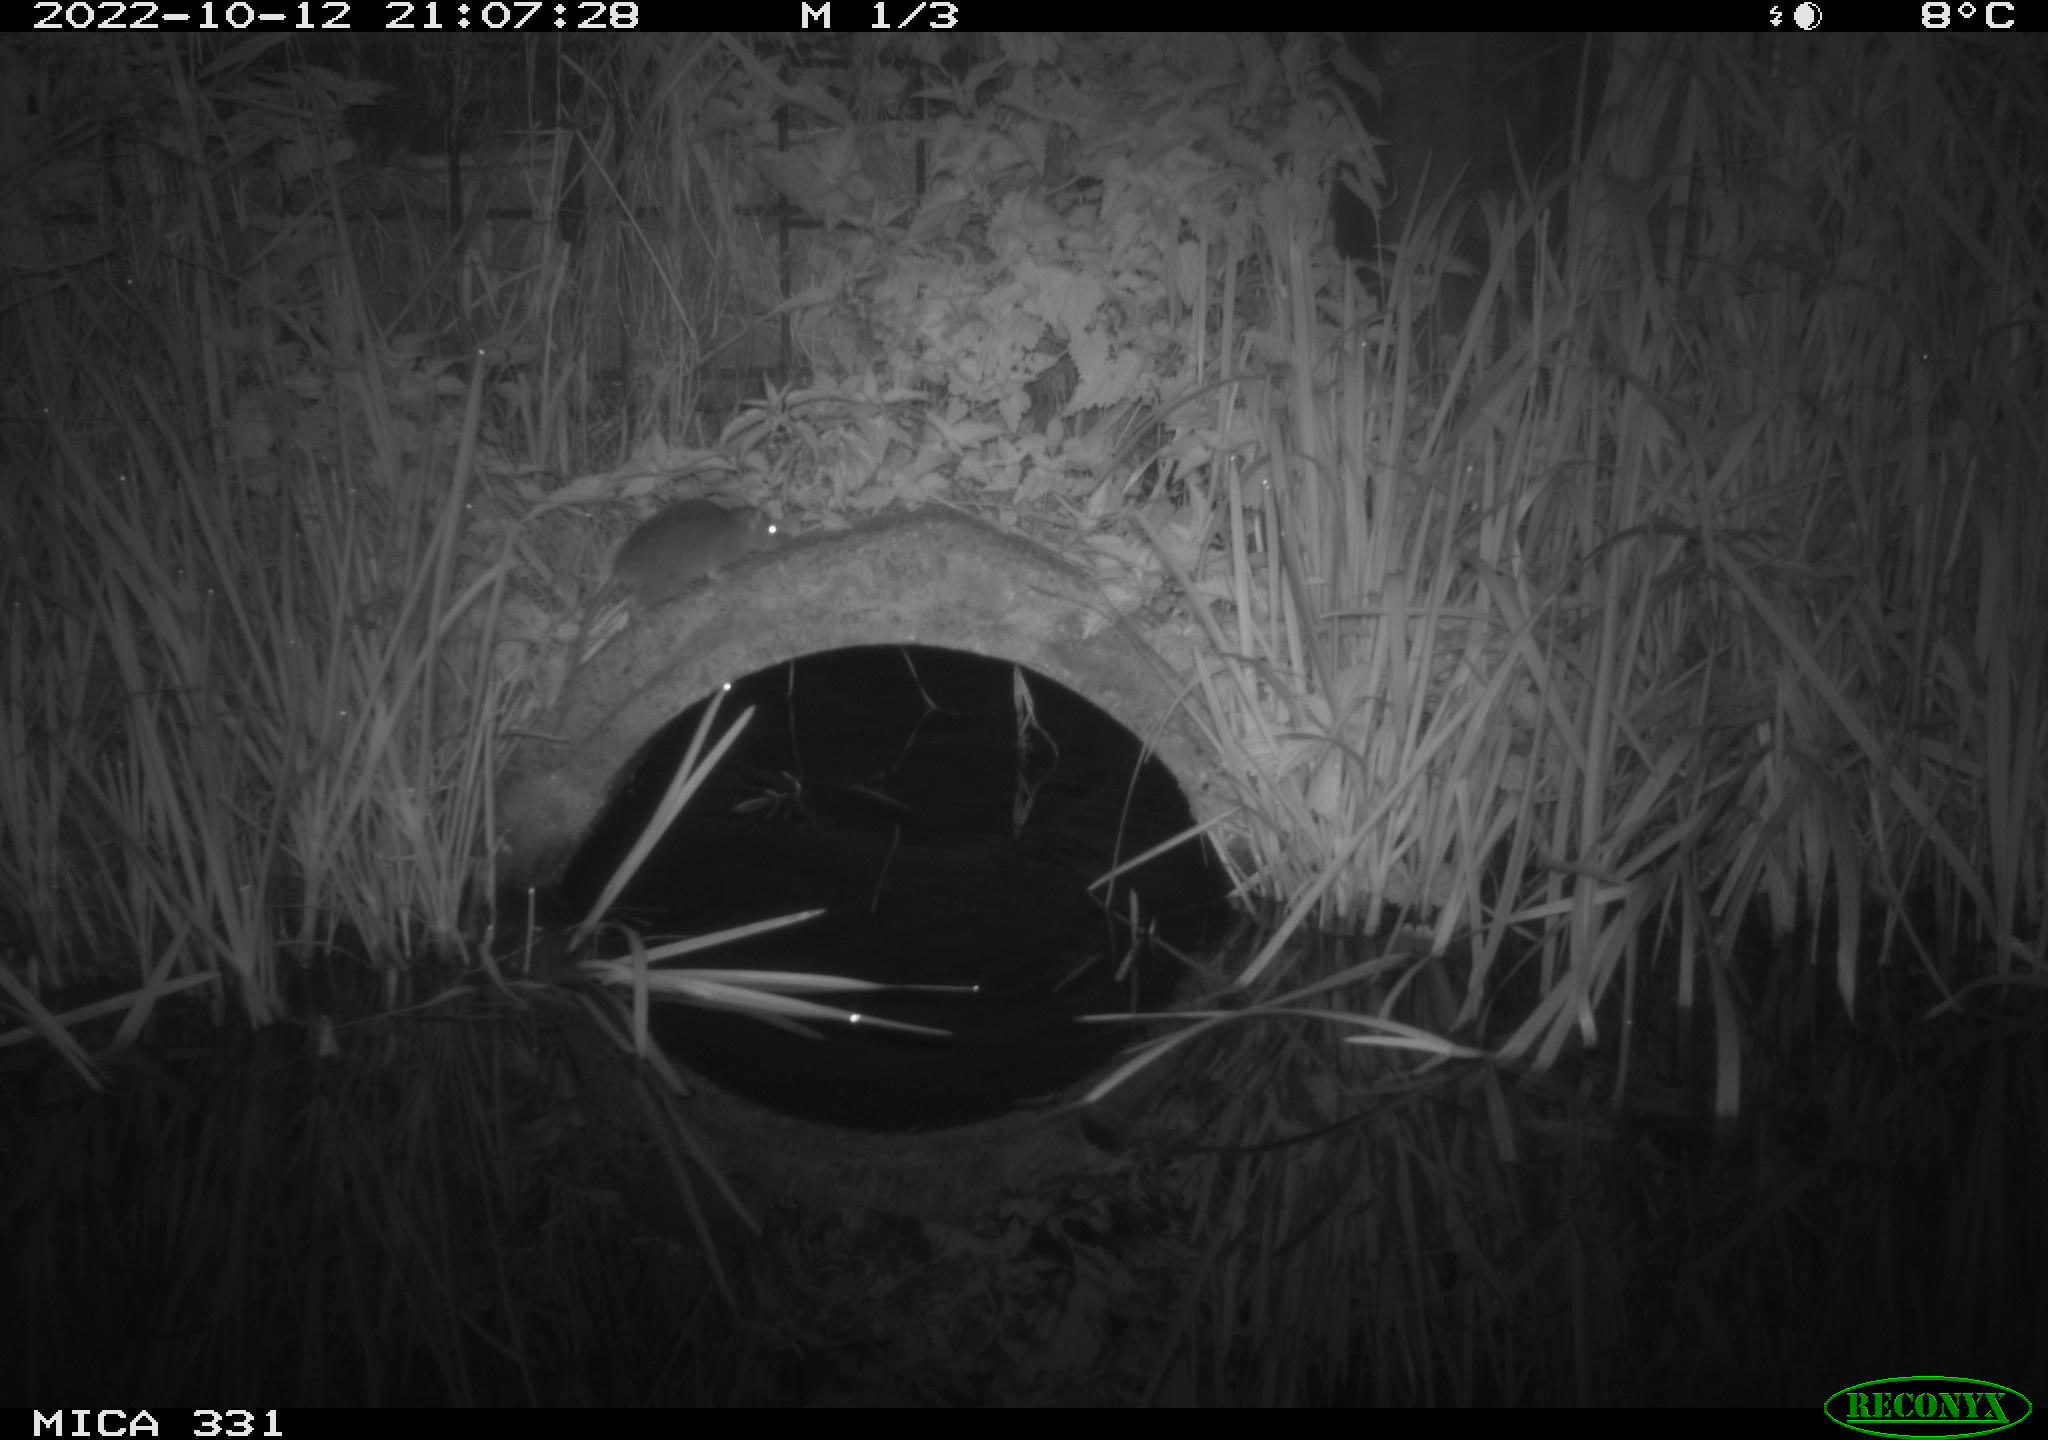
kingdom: Animalia
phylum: Chordata
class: Mammalia
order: Rodentia
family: Muridae
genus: Rattus
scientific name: Rattus norvegicus
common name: Brown rat
